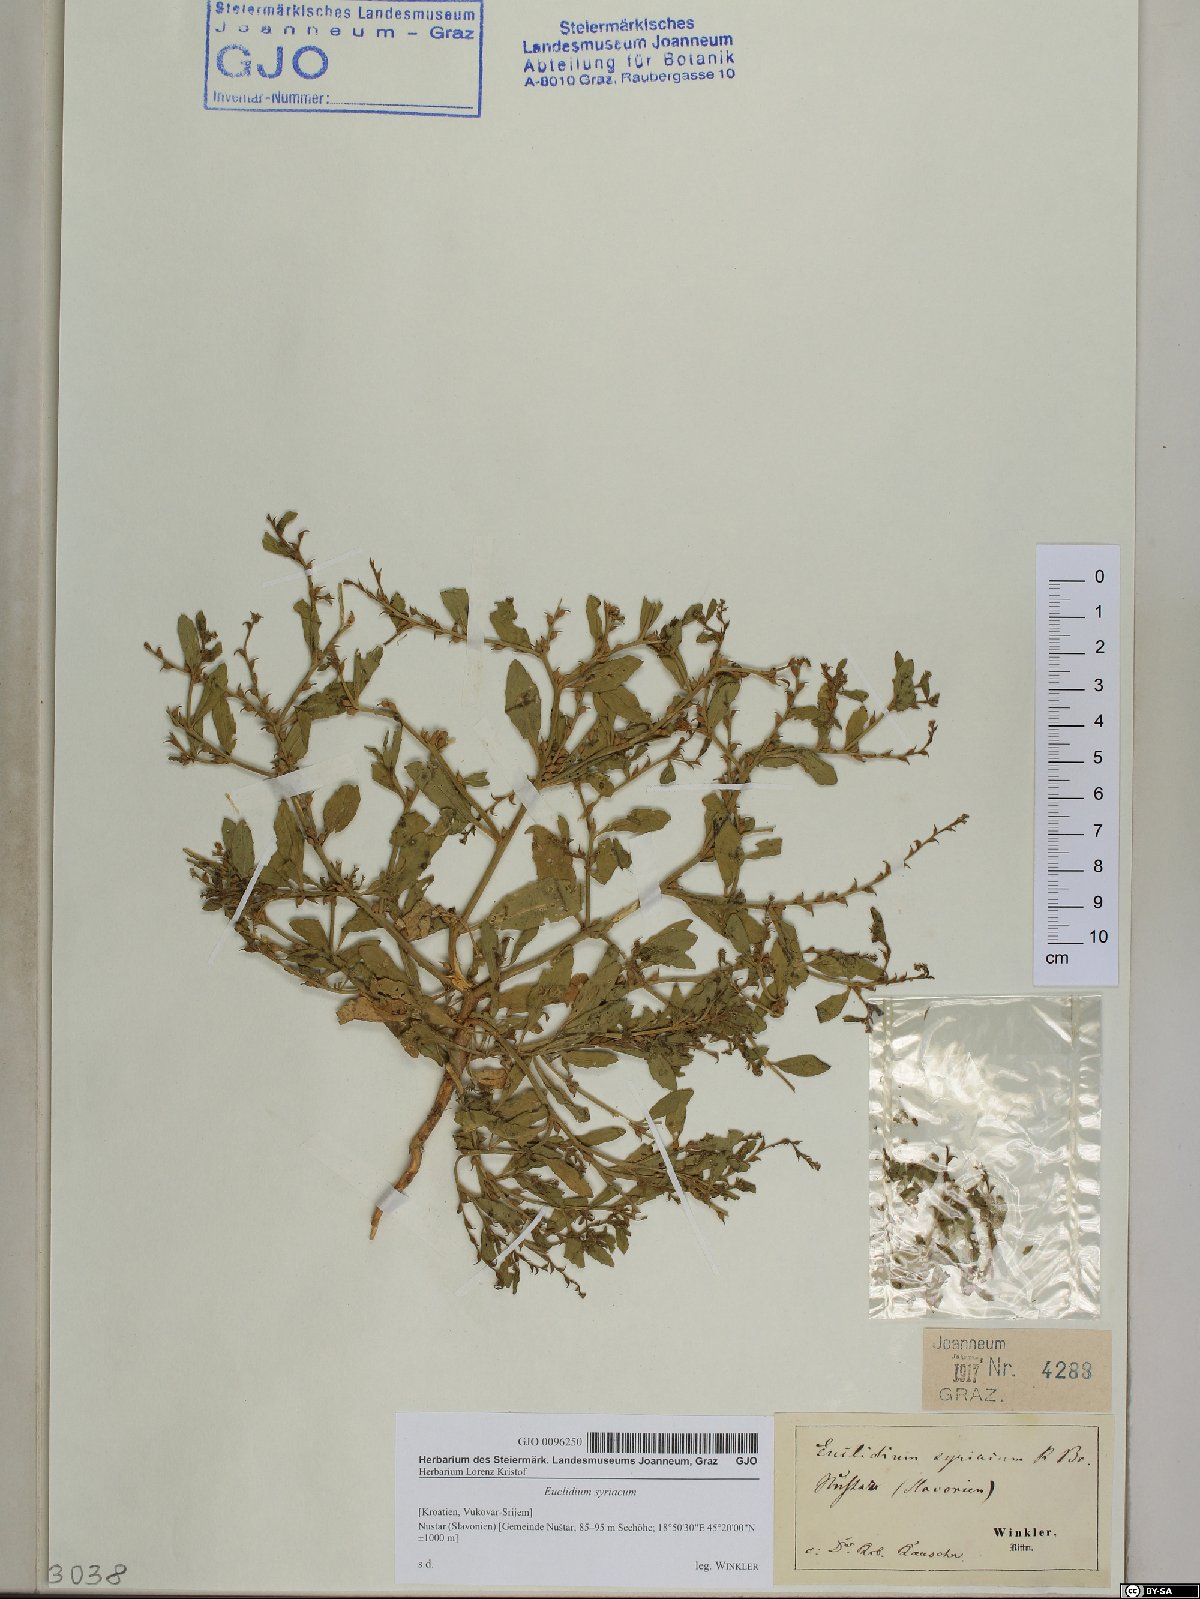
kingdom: Plantae
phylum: Tracheophyta
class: Magnoliopsida
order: Brassicales
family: Brassicaceae
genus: Euclidium
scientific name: Euclidium syriacum
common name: Syrian mustard
